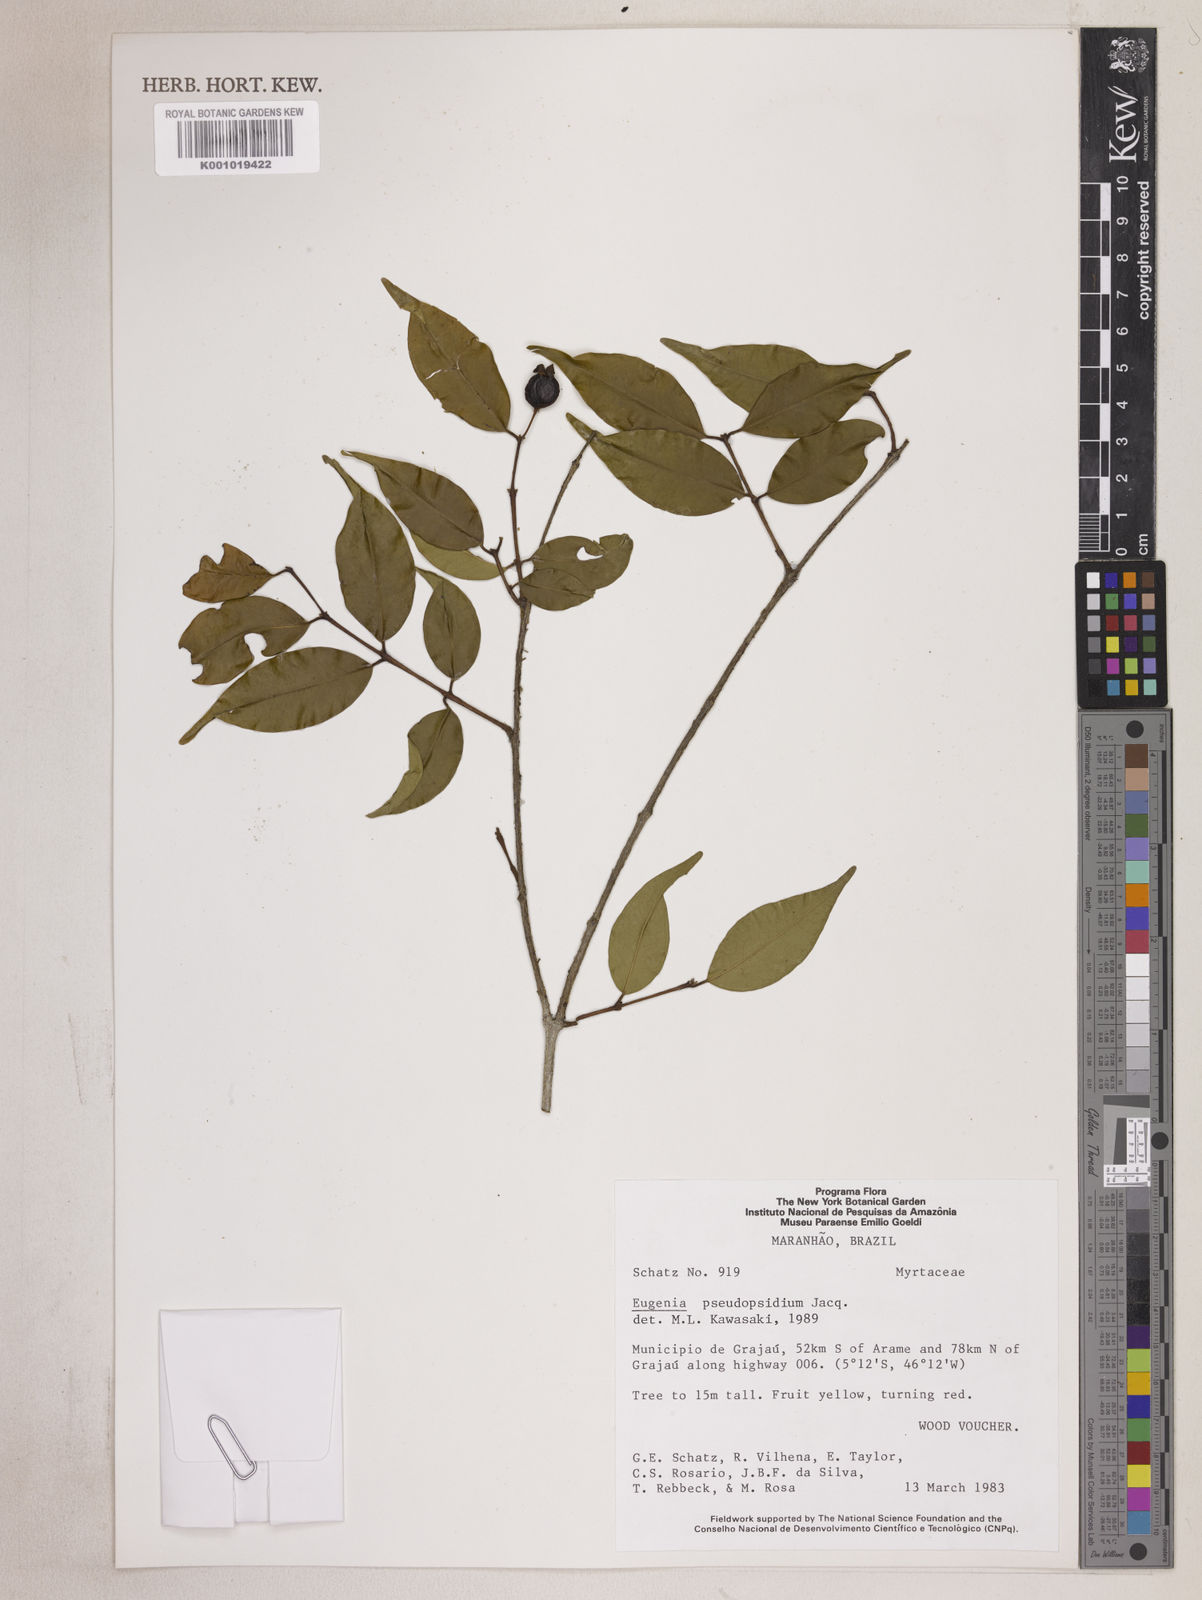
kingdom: Plantae
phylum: Tracheophyta
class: Magnoliopsida
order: Myrtales
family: Myrtaceae
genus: Eugenia
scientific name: Eugenia pseudopsidium
